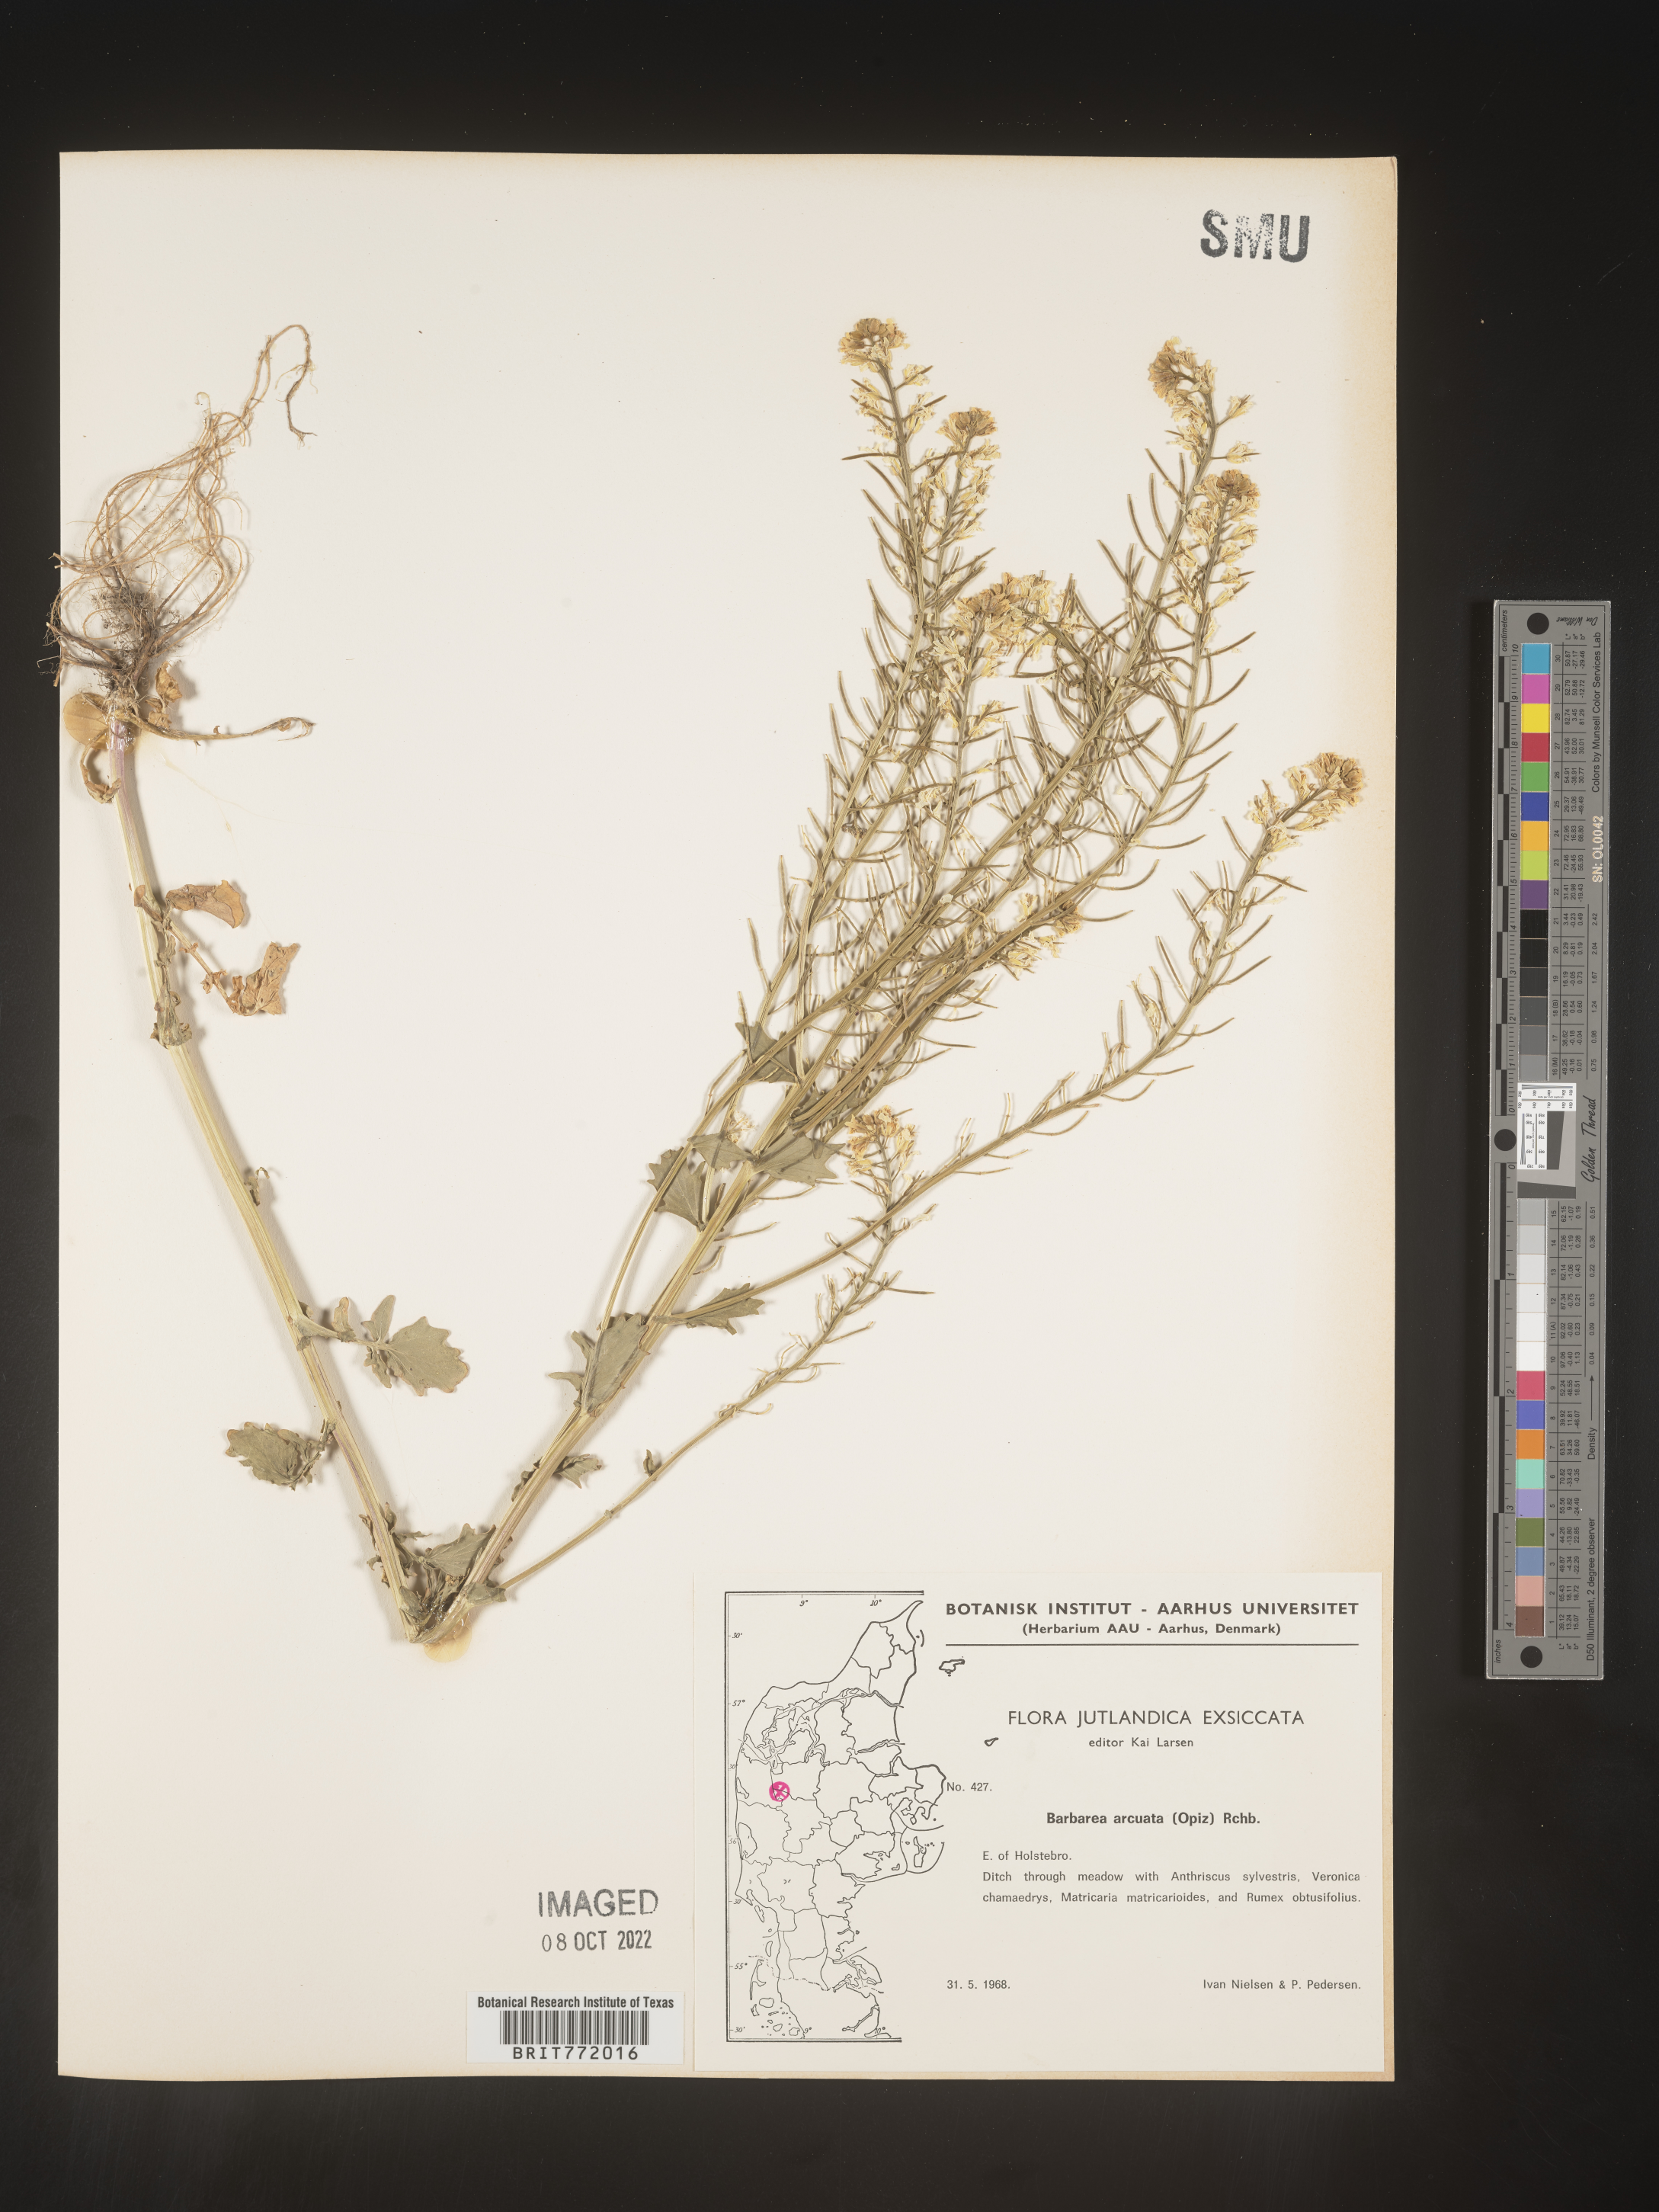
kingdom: Plantae
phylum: Tracheophyta
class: Magnoliopsida
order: Brassicales
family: Brassicaceae
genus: Barbarea
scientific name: Barbarea
